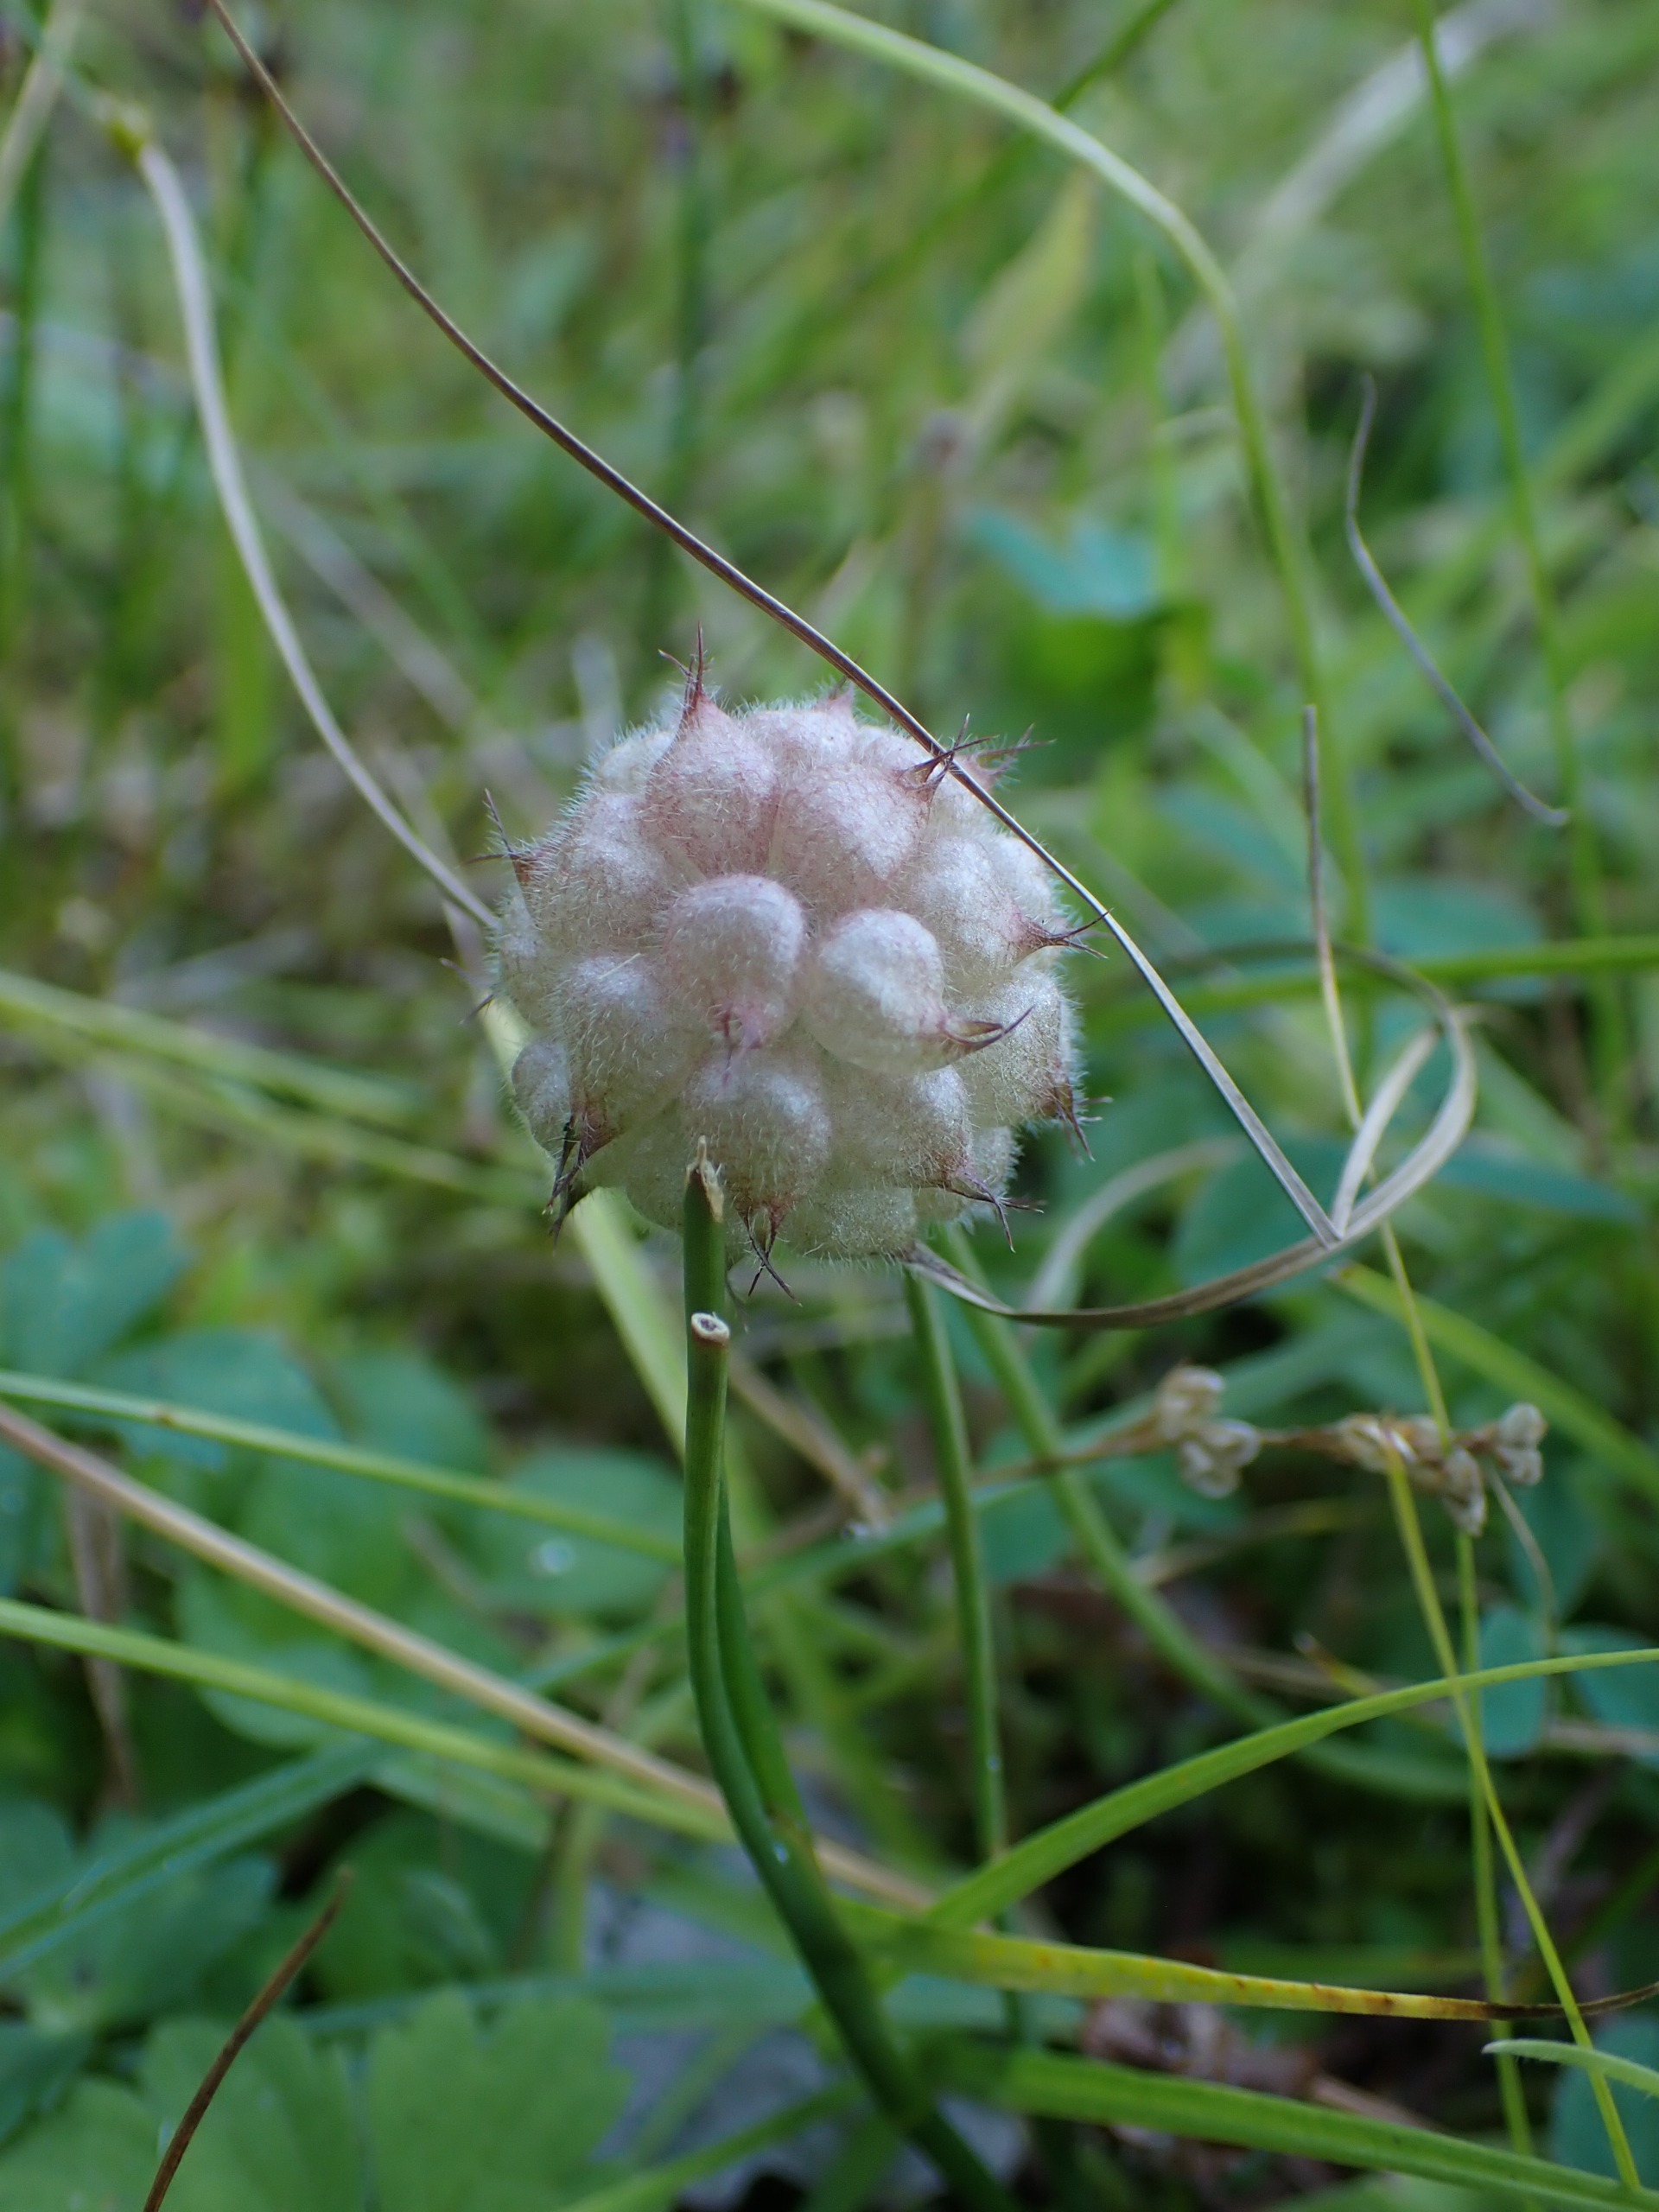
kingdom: Plantae
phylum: Tracheophyta
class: Magnoliopsida
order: Fabales
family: Fabaceae
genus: Trifolium
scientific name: Trifolium fragiferum
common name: Jordbær-kløver
